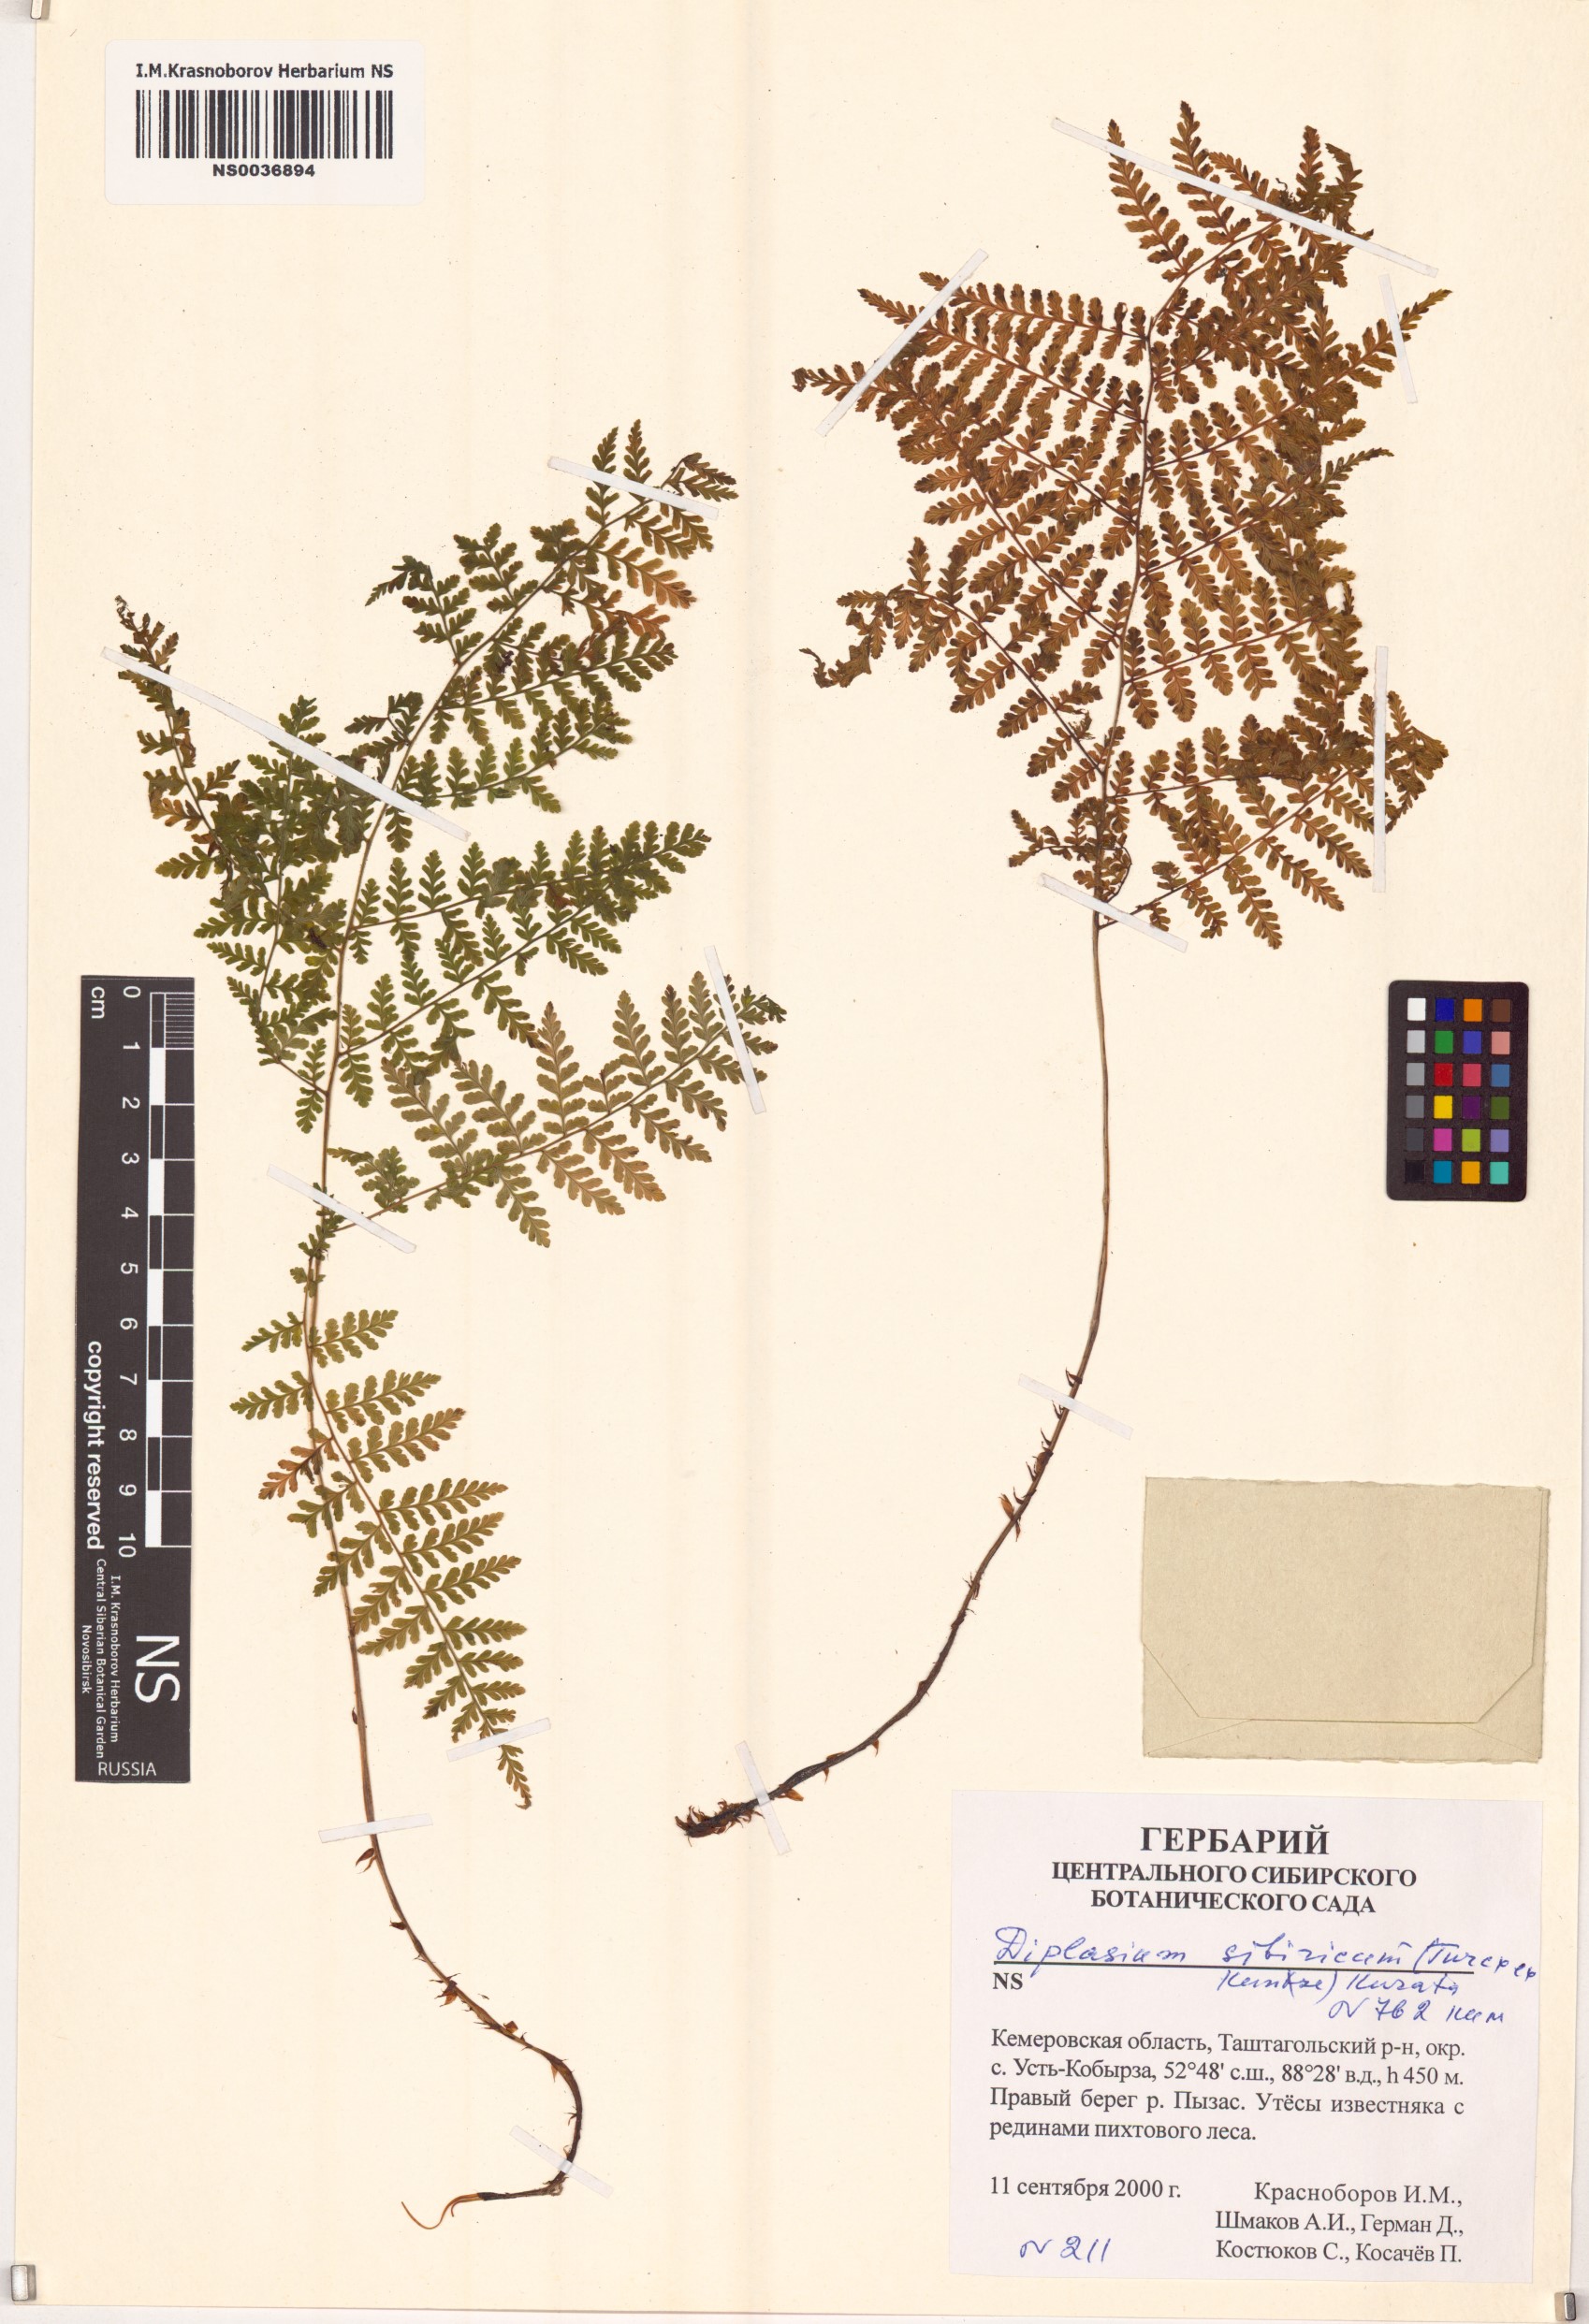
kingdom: Plantae
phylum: Tracheophyta
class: Polypodiopsida
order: Polypodiales
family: Athyriaceae
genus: Diplazium
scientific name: Diplazium sibiricum
